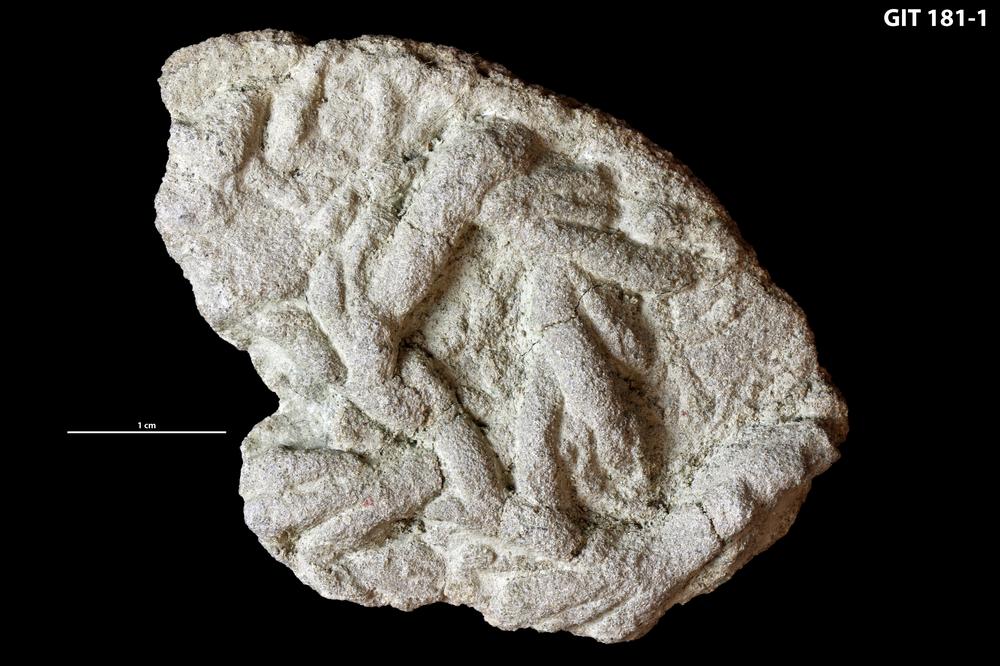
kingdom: Animalia
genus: Treptichnus
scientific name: Treptichnus
